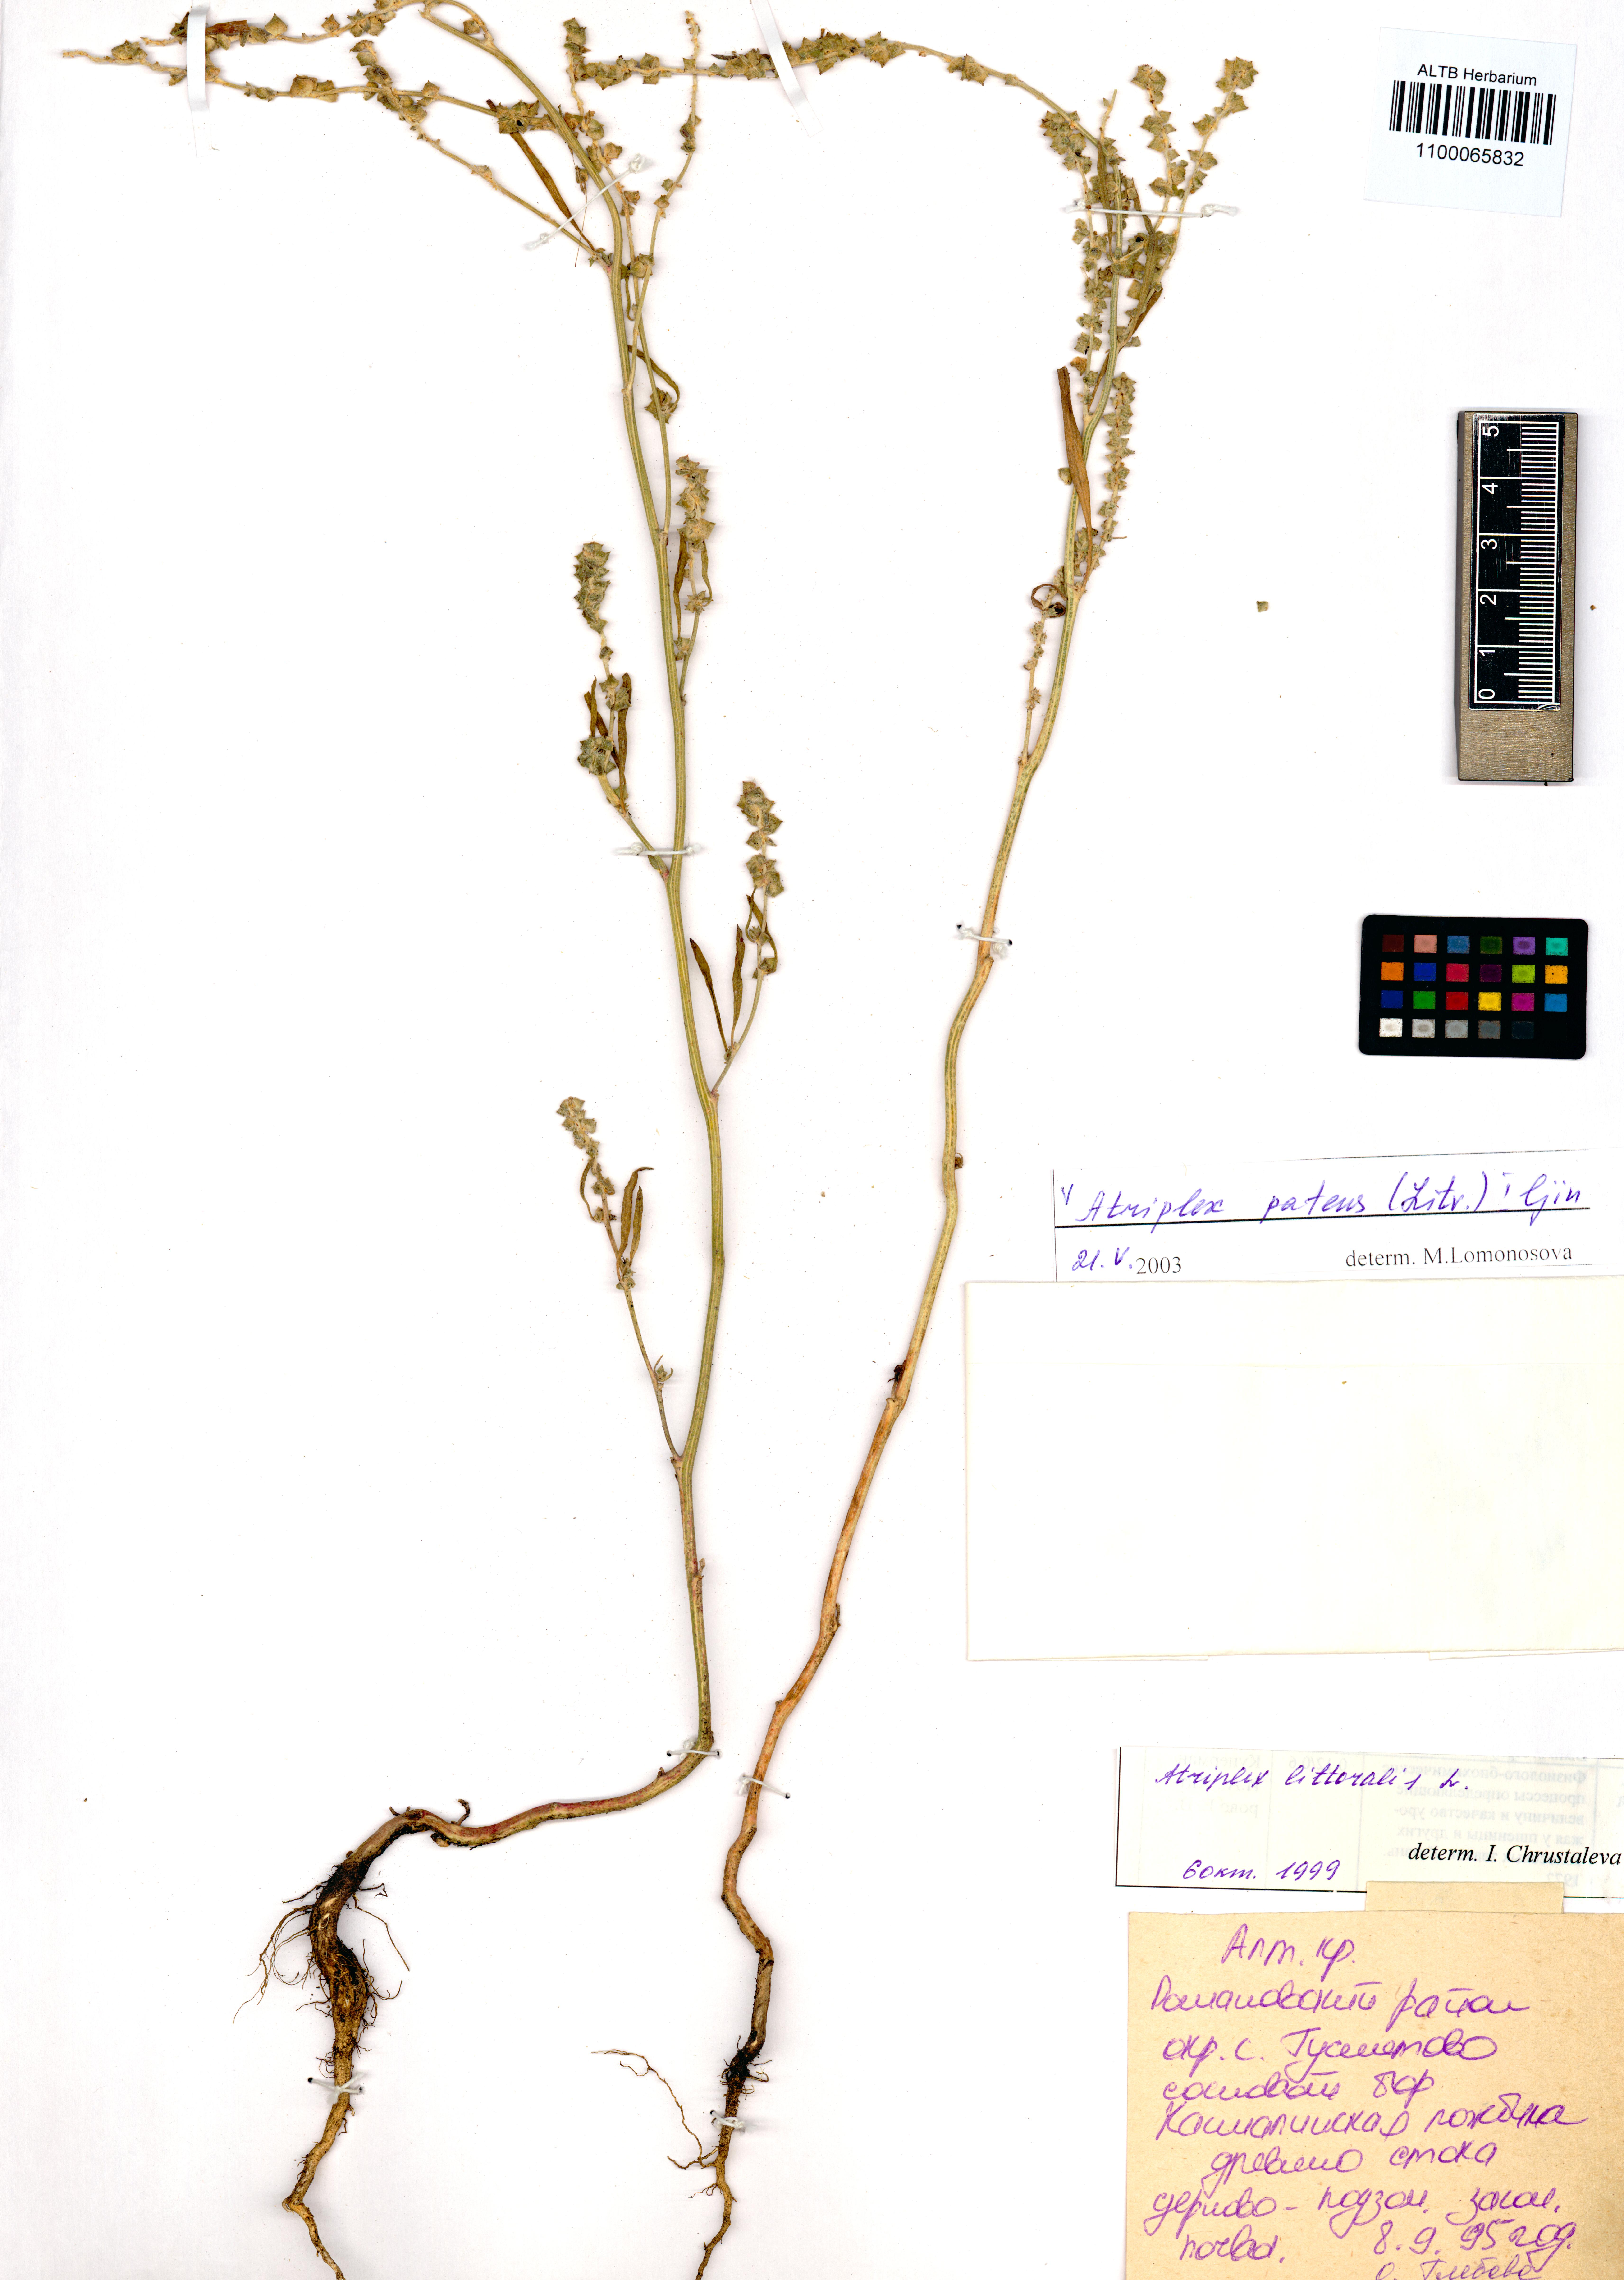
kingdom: Plantae
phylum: Tracheophyta
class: Magnoliopsida
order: Caryophyllales
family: Amaranthaceae
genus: Atriplex
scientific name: Atriplex patens
